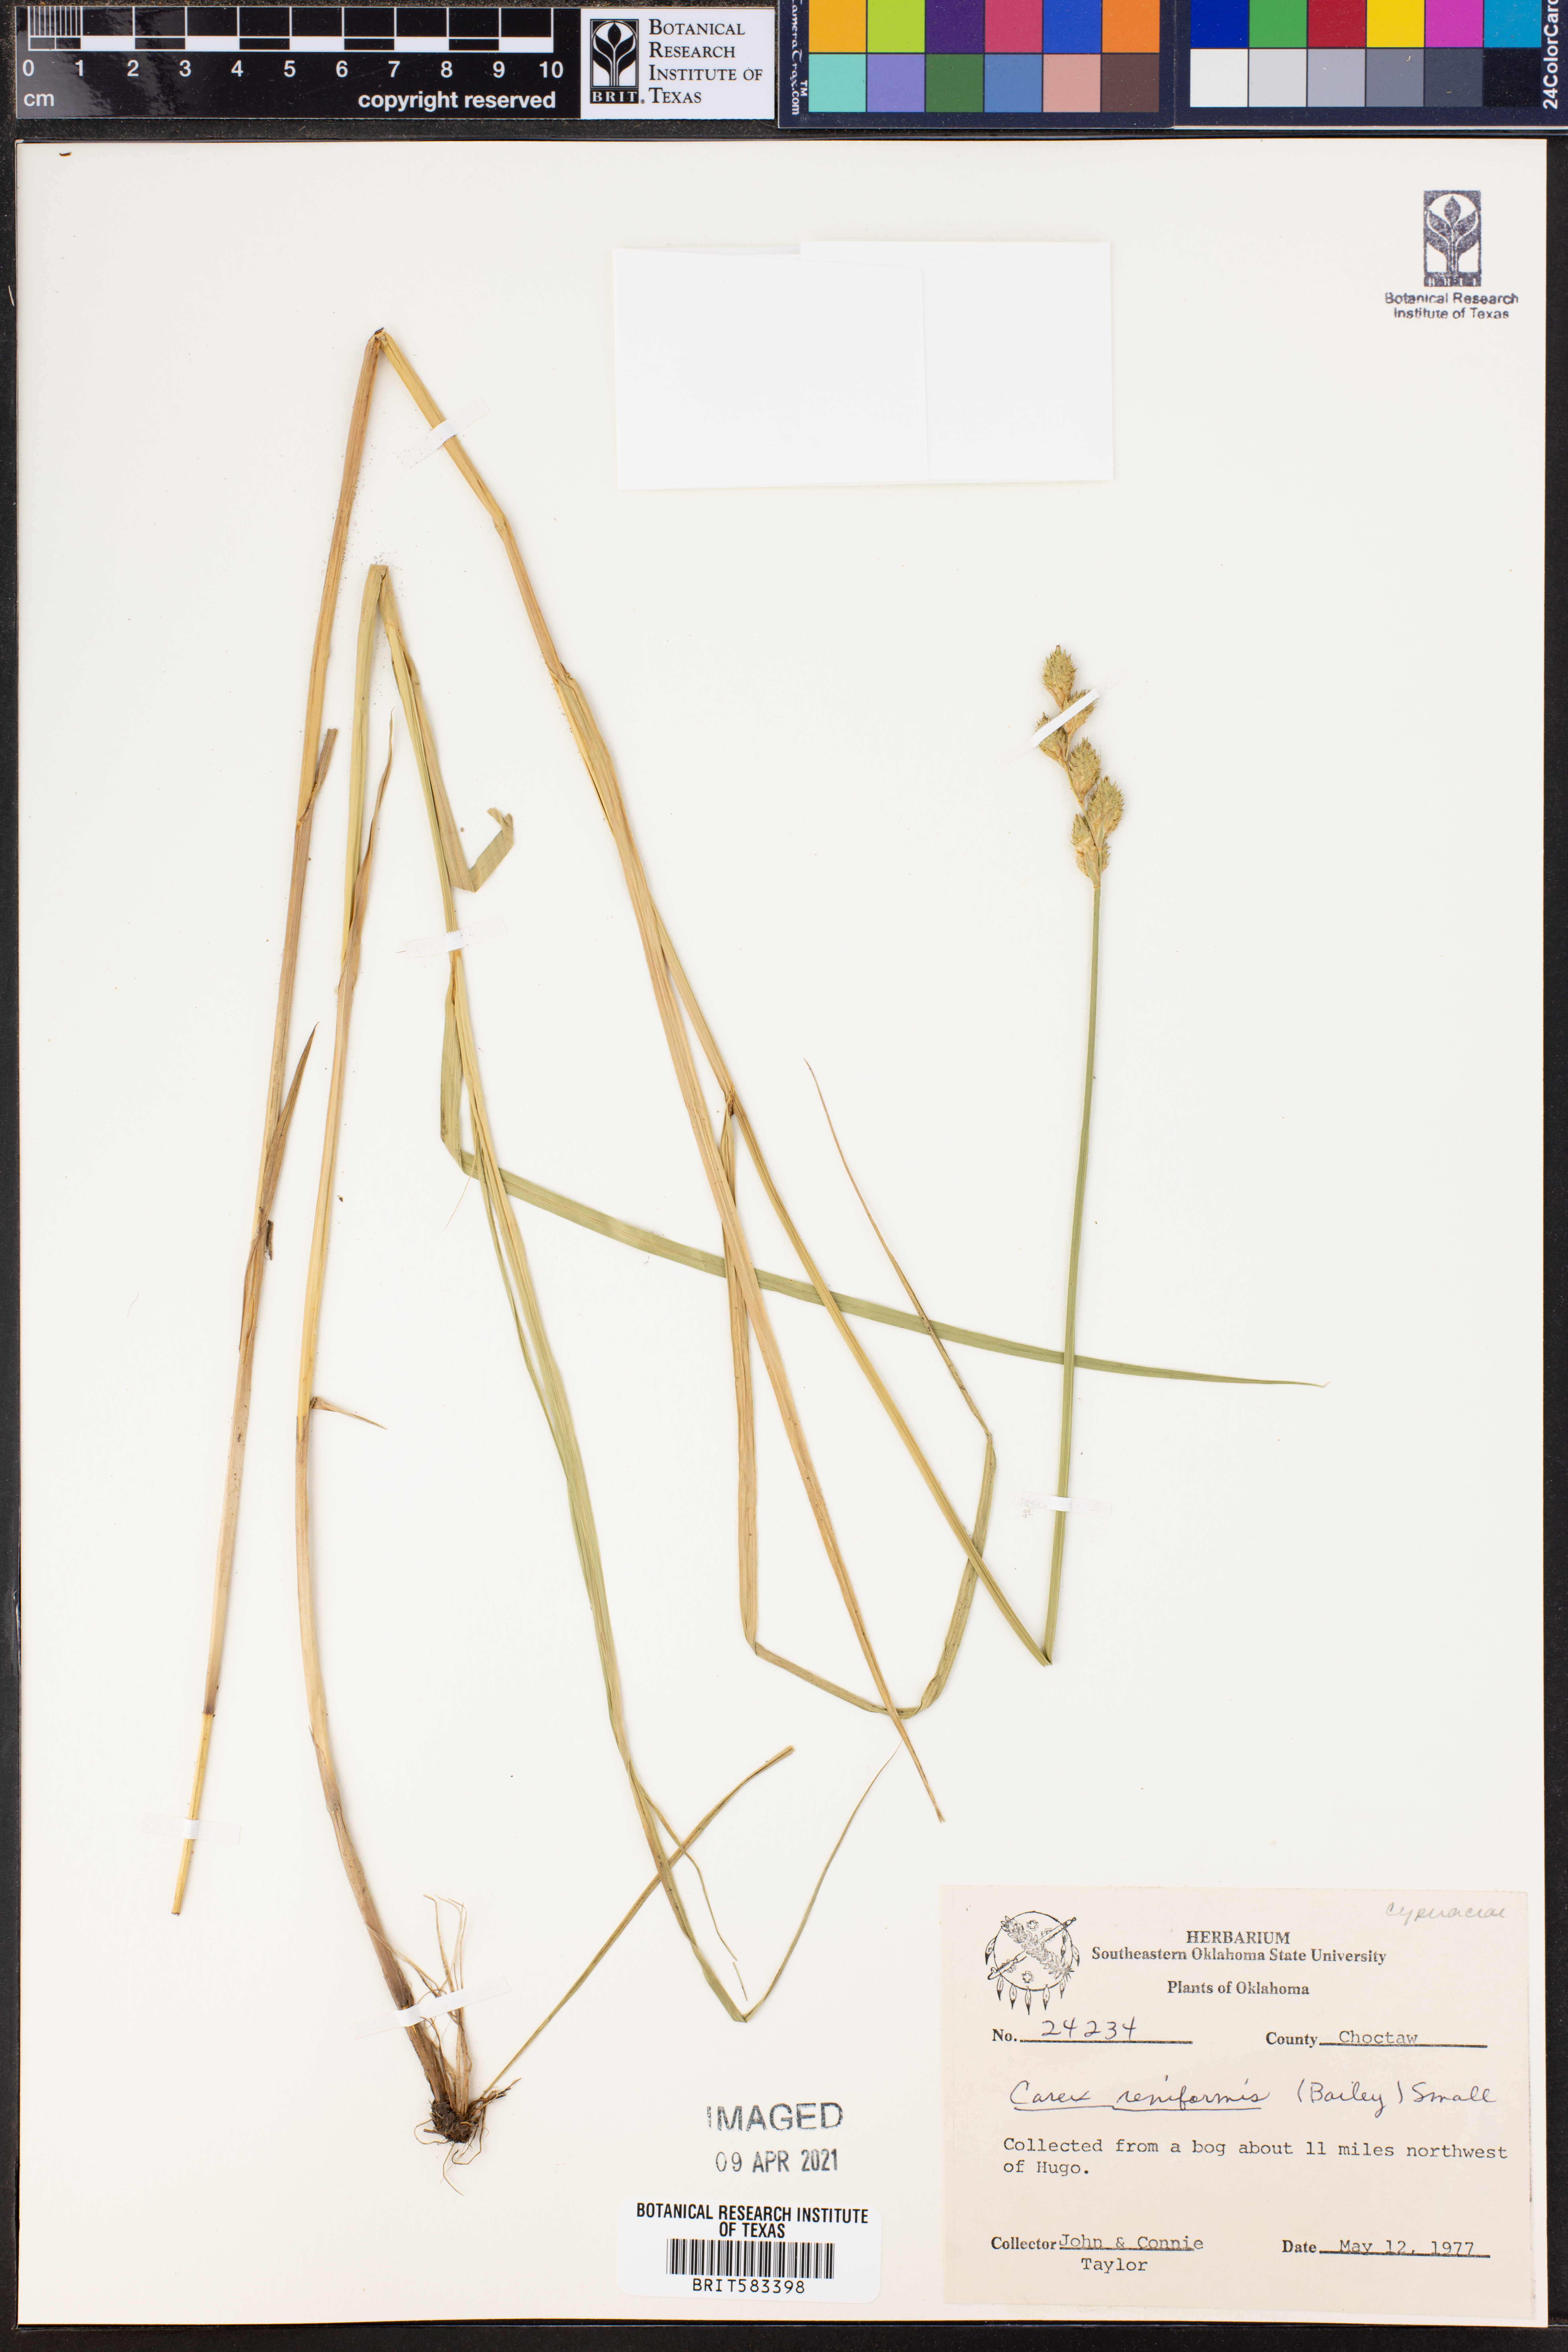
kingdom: Plantae
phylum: Tracheophyta
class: Liliopsida
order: Poales
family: Cyperaceae
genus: Carex
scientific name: Carex reniformis
